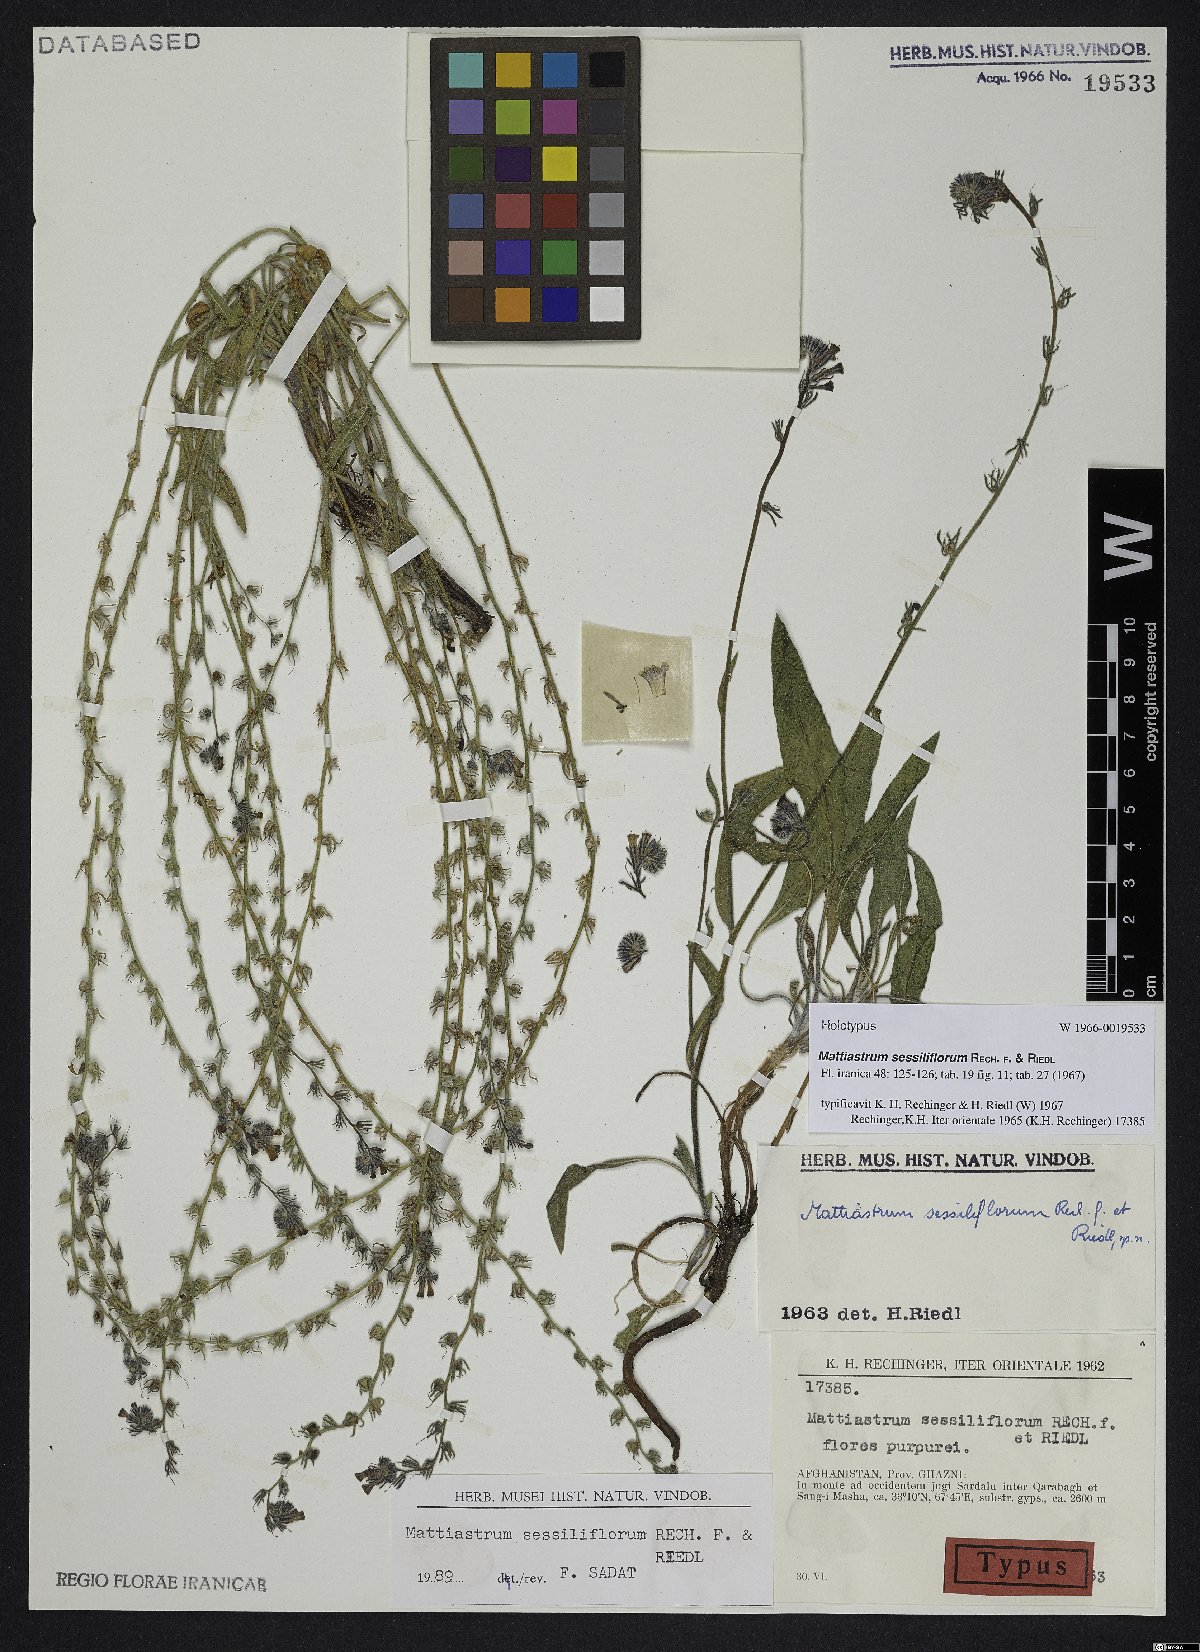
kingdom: Plantae
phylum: Tracheophyta
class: Magnoliopsida
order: Boraginales
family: Boraginaceae
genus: Paracaryum
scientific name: Paracaryum sessiliflorum
